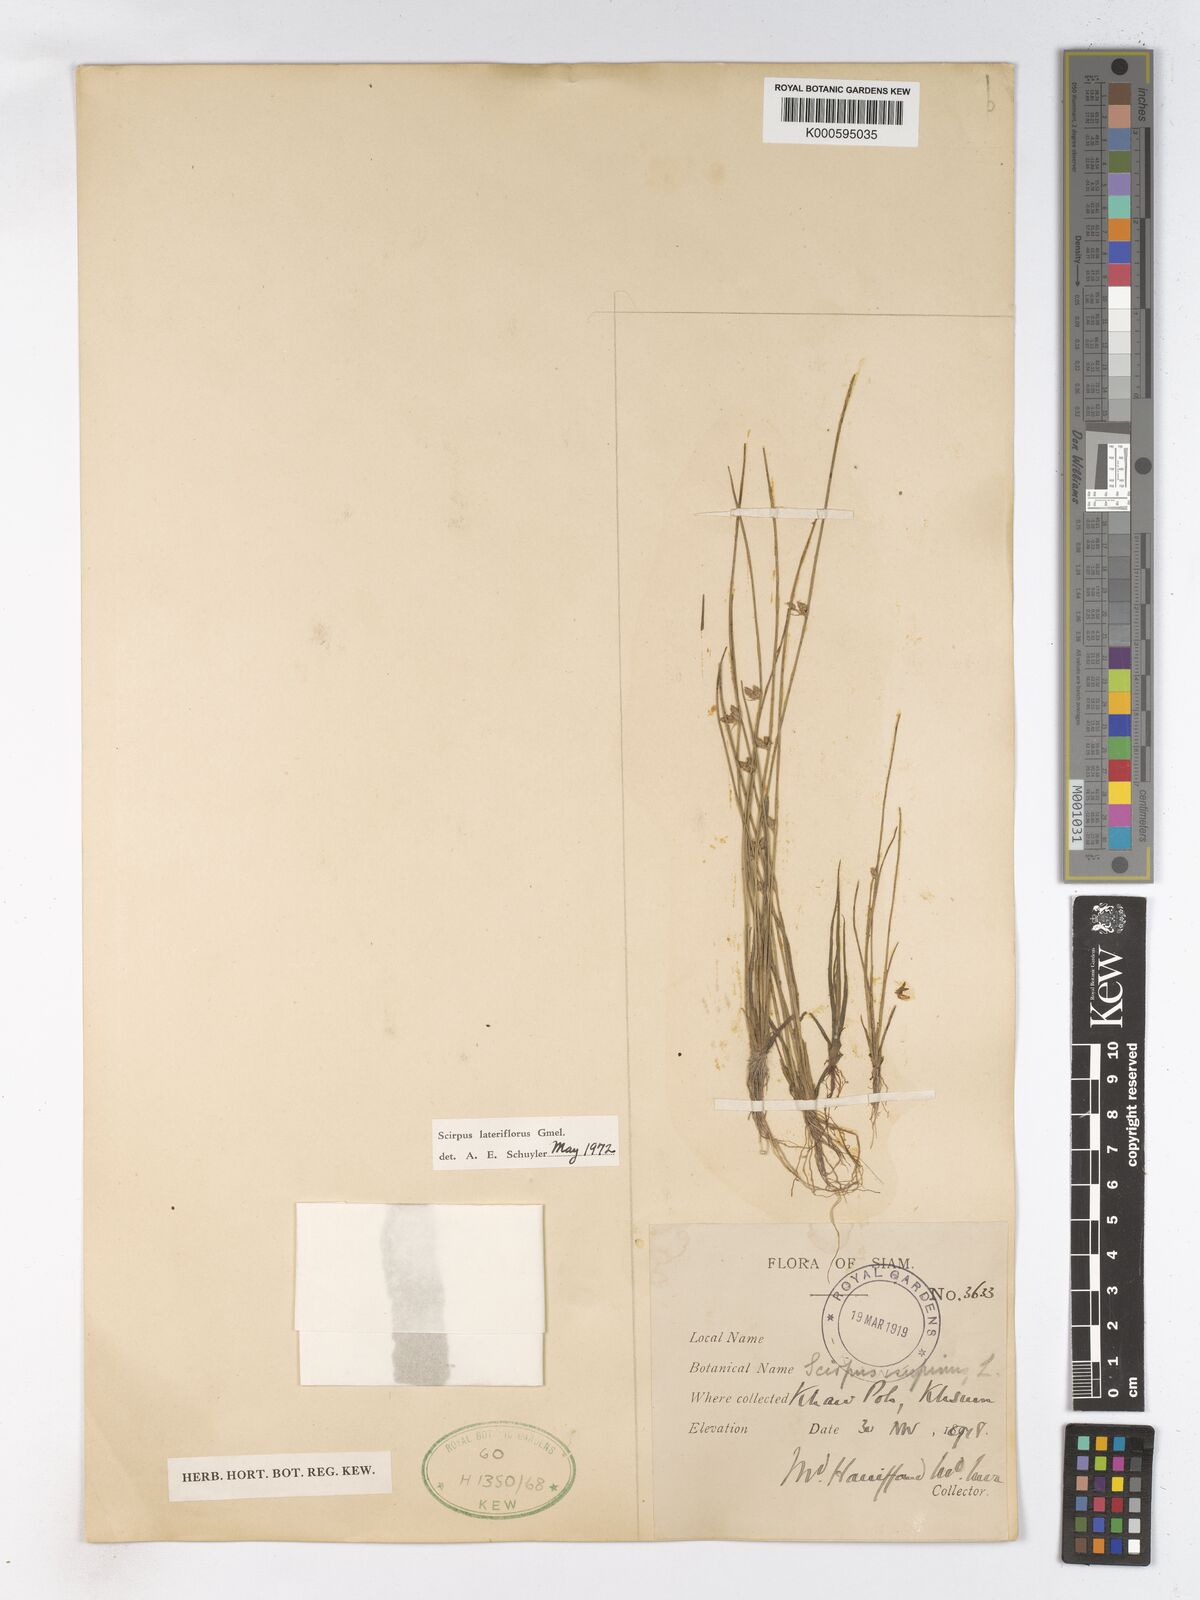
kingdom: Plantae
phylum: Tracheophyta
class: Liliopsida
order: Poales
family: Cyperaceae
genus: Schoenoplectiella
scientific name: Schoenoplectiella supina
